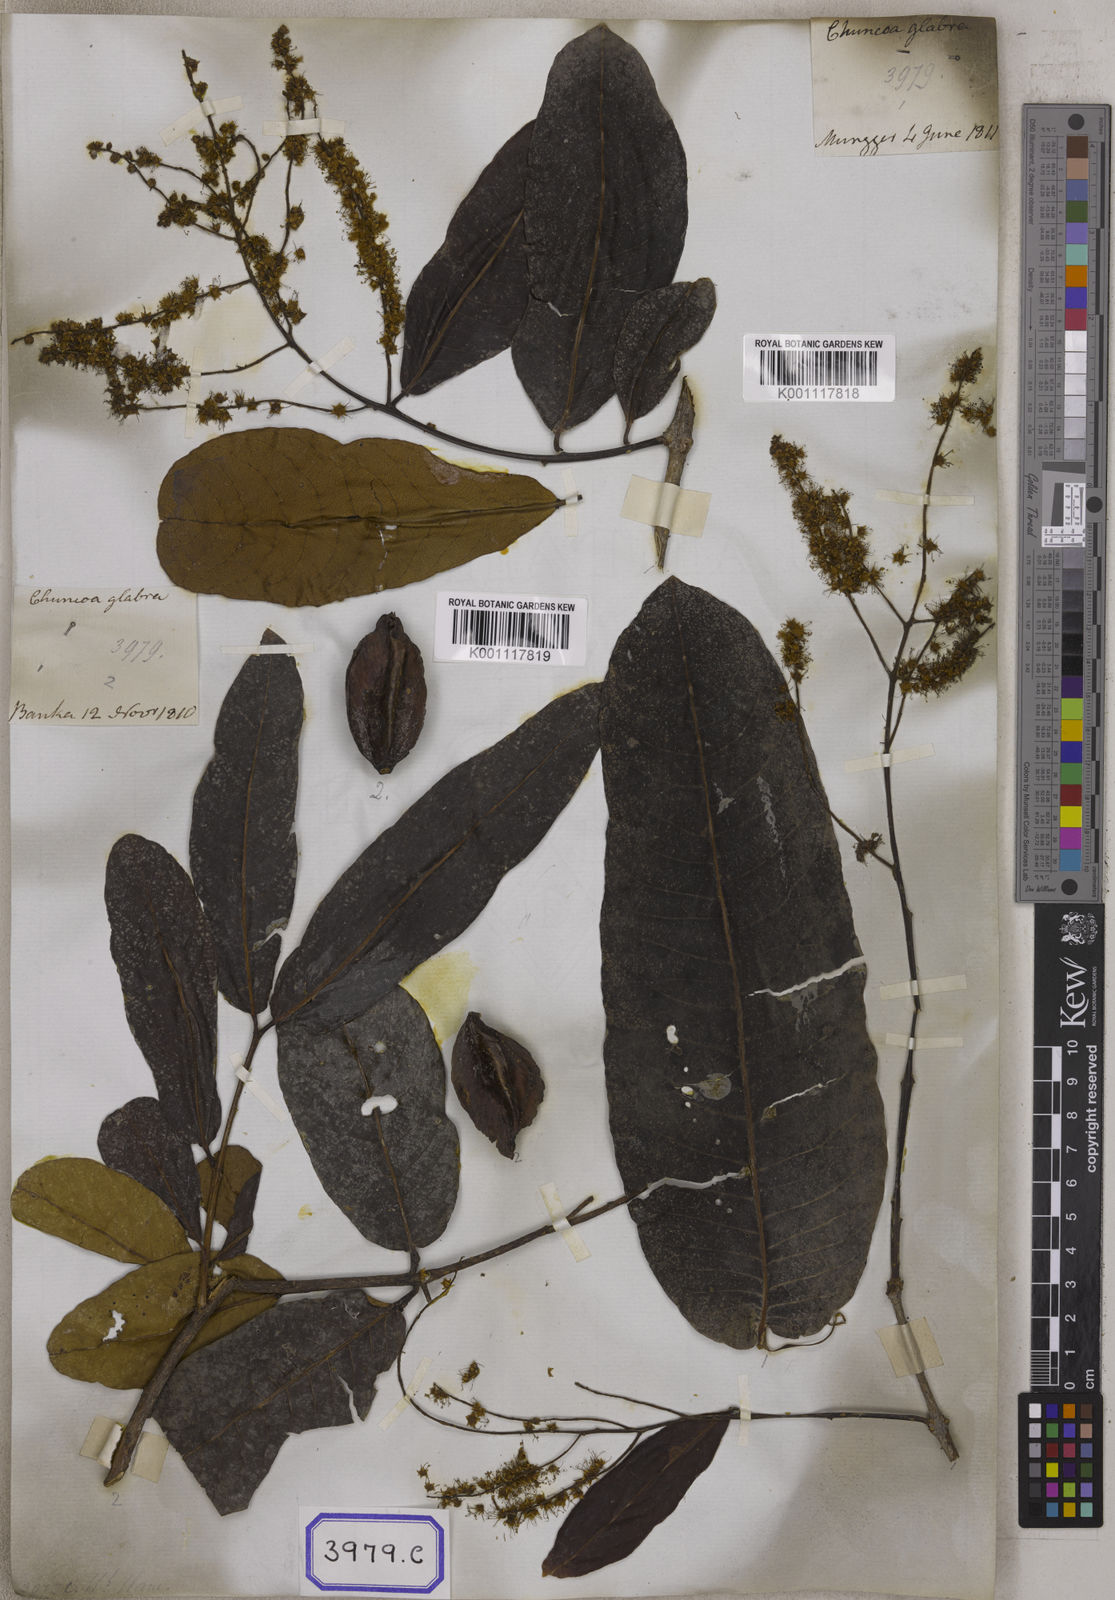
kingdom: Plantae
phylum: Tracheophyta
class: Magnoliopsida
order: Myrtales
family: Combretaceae
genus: Terminalia
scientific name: Terminalia arjuna
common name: Arjun
